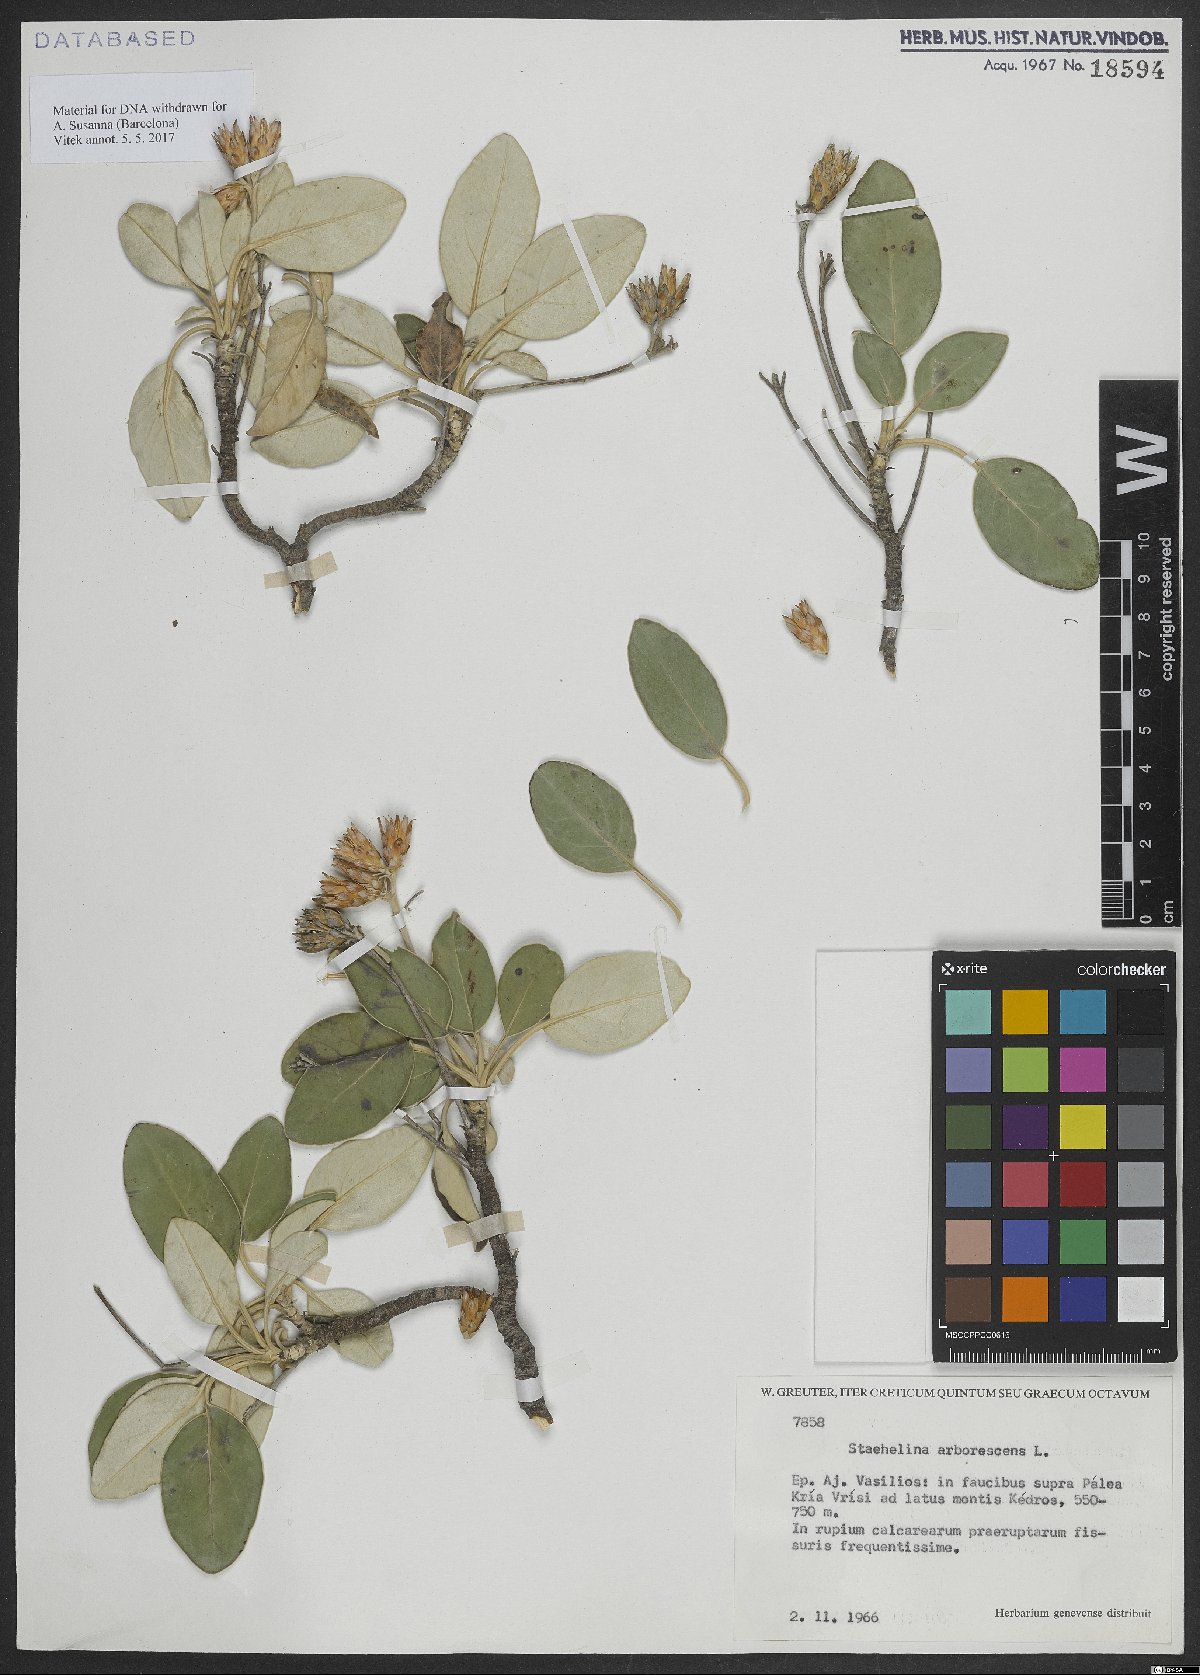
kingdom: Plantae
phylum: Tracheophyta
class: Magnoliopsida
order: Asterales
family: Asteraceae
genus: Staehelina
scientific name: Staehelina
